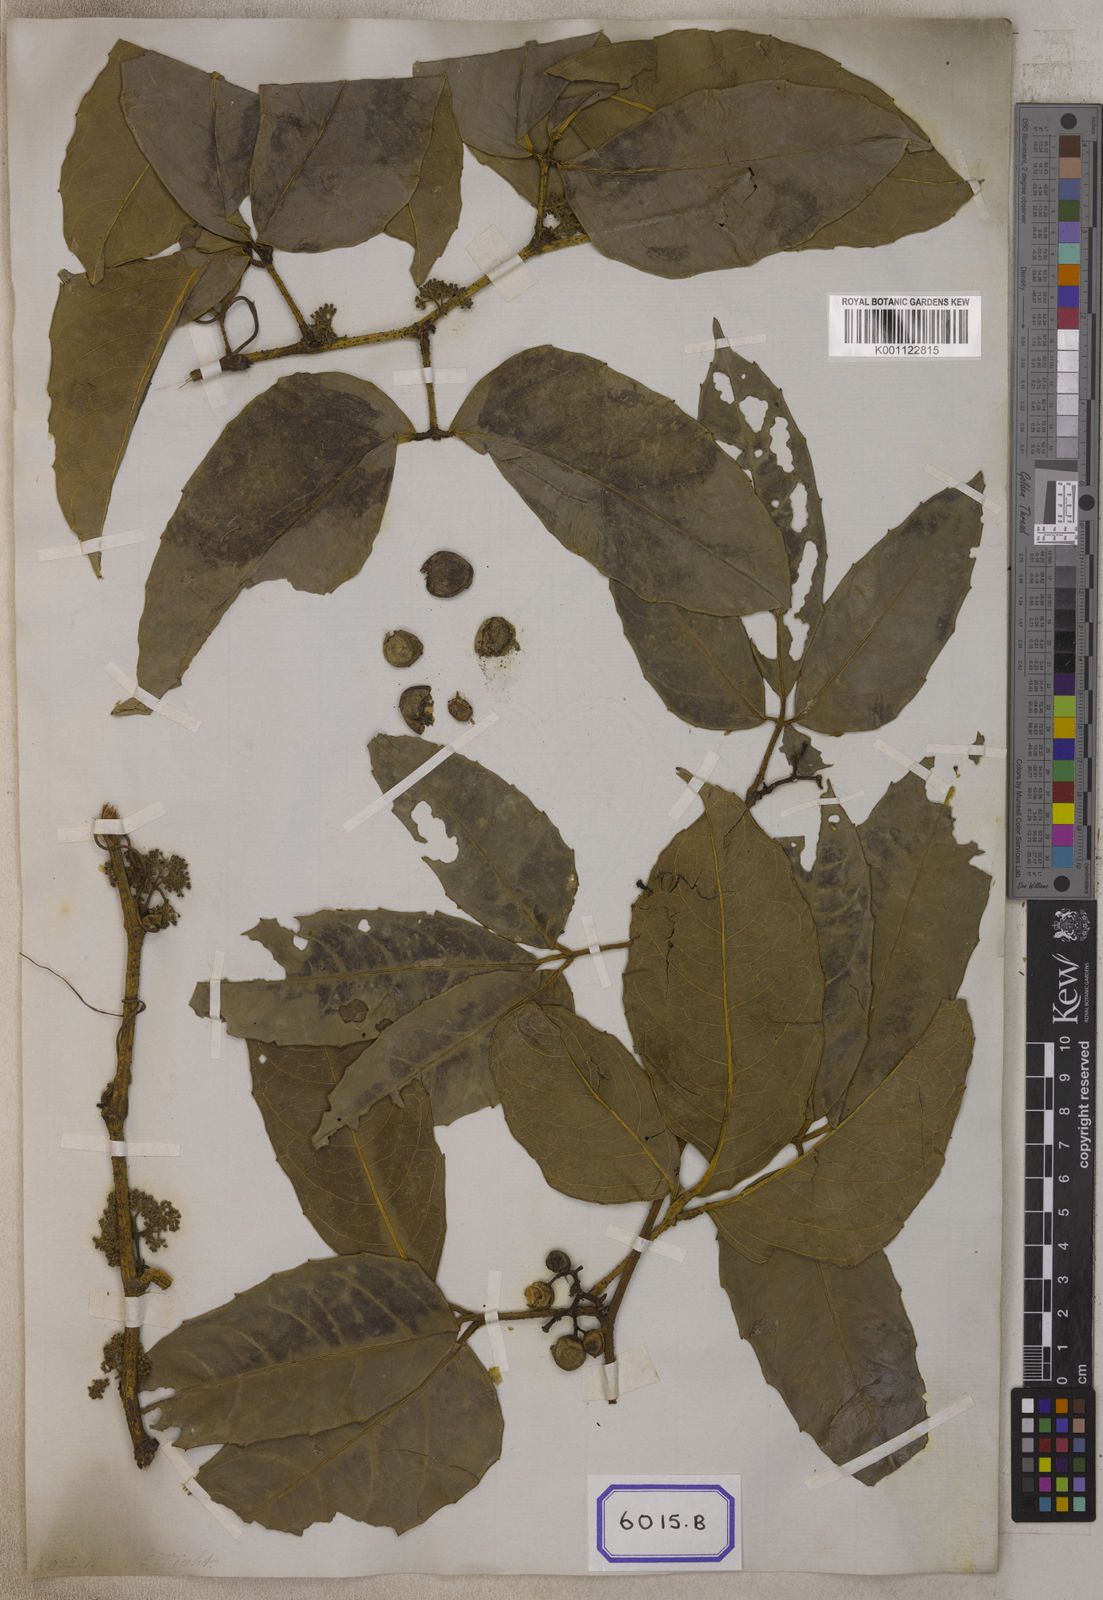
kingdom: Plantae
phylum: Tracheophyta
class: Magnoliopsida
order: Vitales
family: Vitaceae
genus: Cayratia
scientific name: Cayratia pedata
